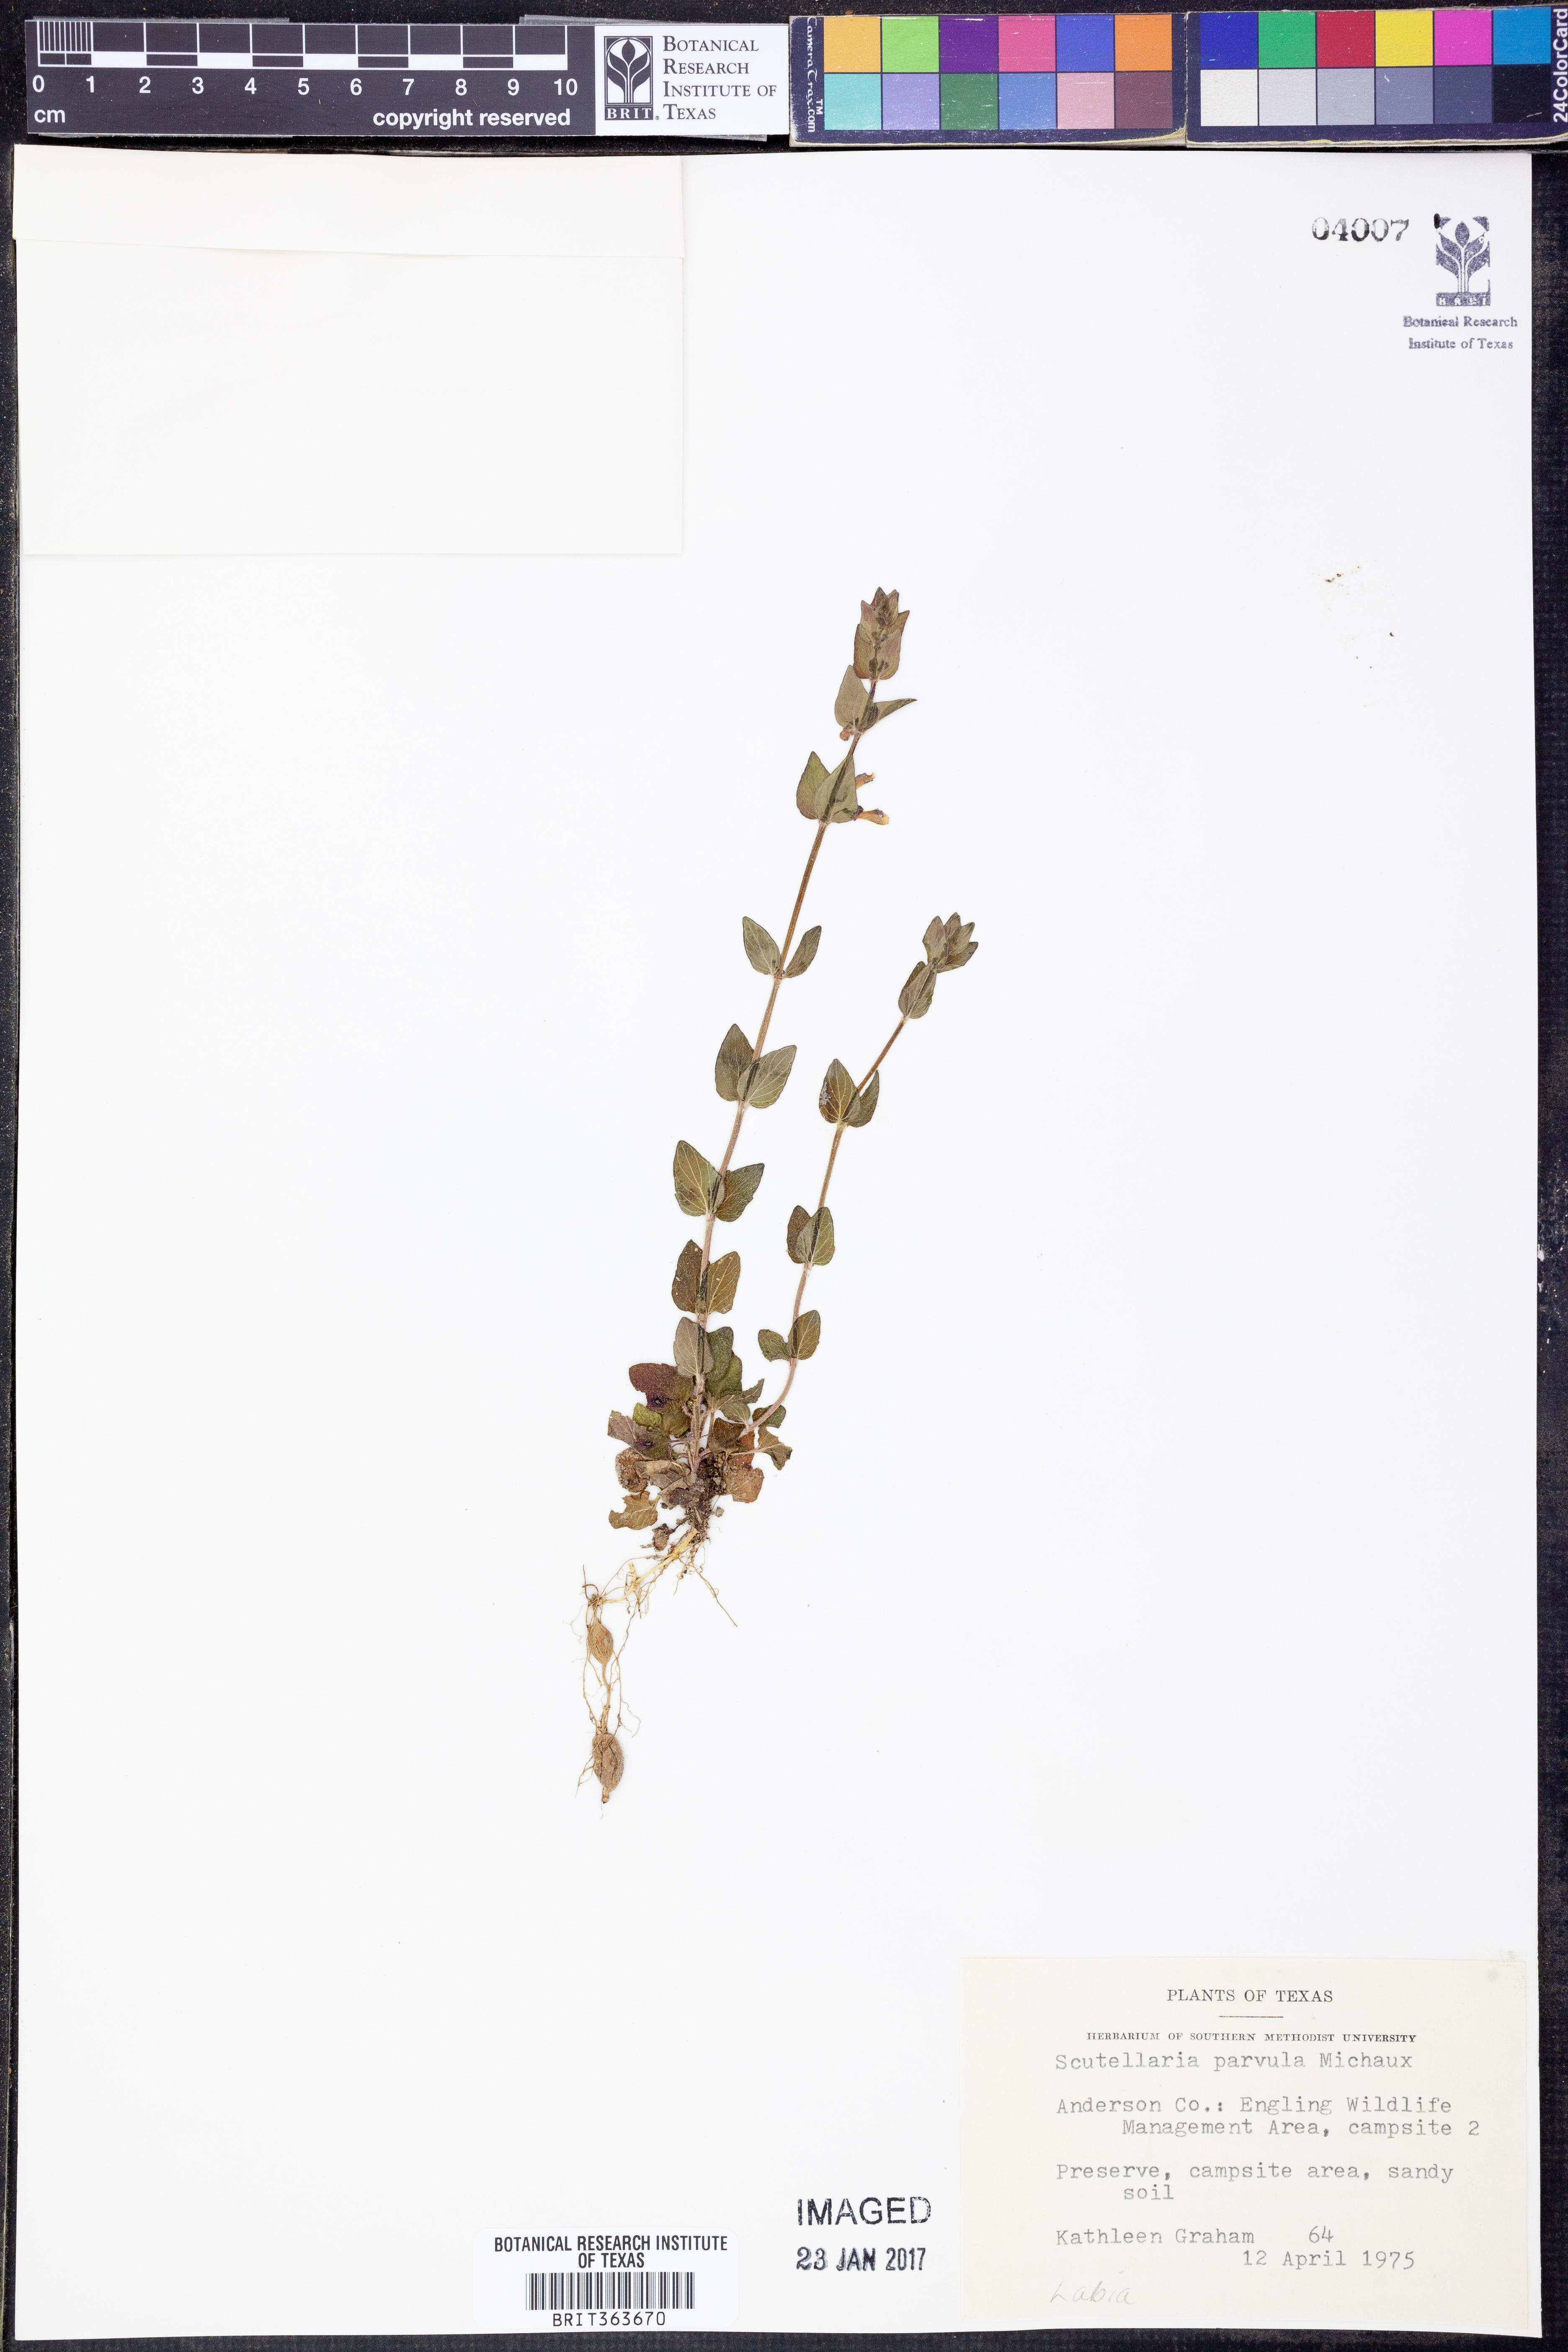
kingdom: Plantae
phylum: Tracheophyta
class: Magnoliopsida
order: Lamiales
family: Lamiaceae
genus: Scutellaria
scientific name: Scutellaria parvula
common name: Little scullcap
